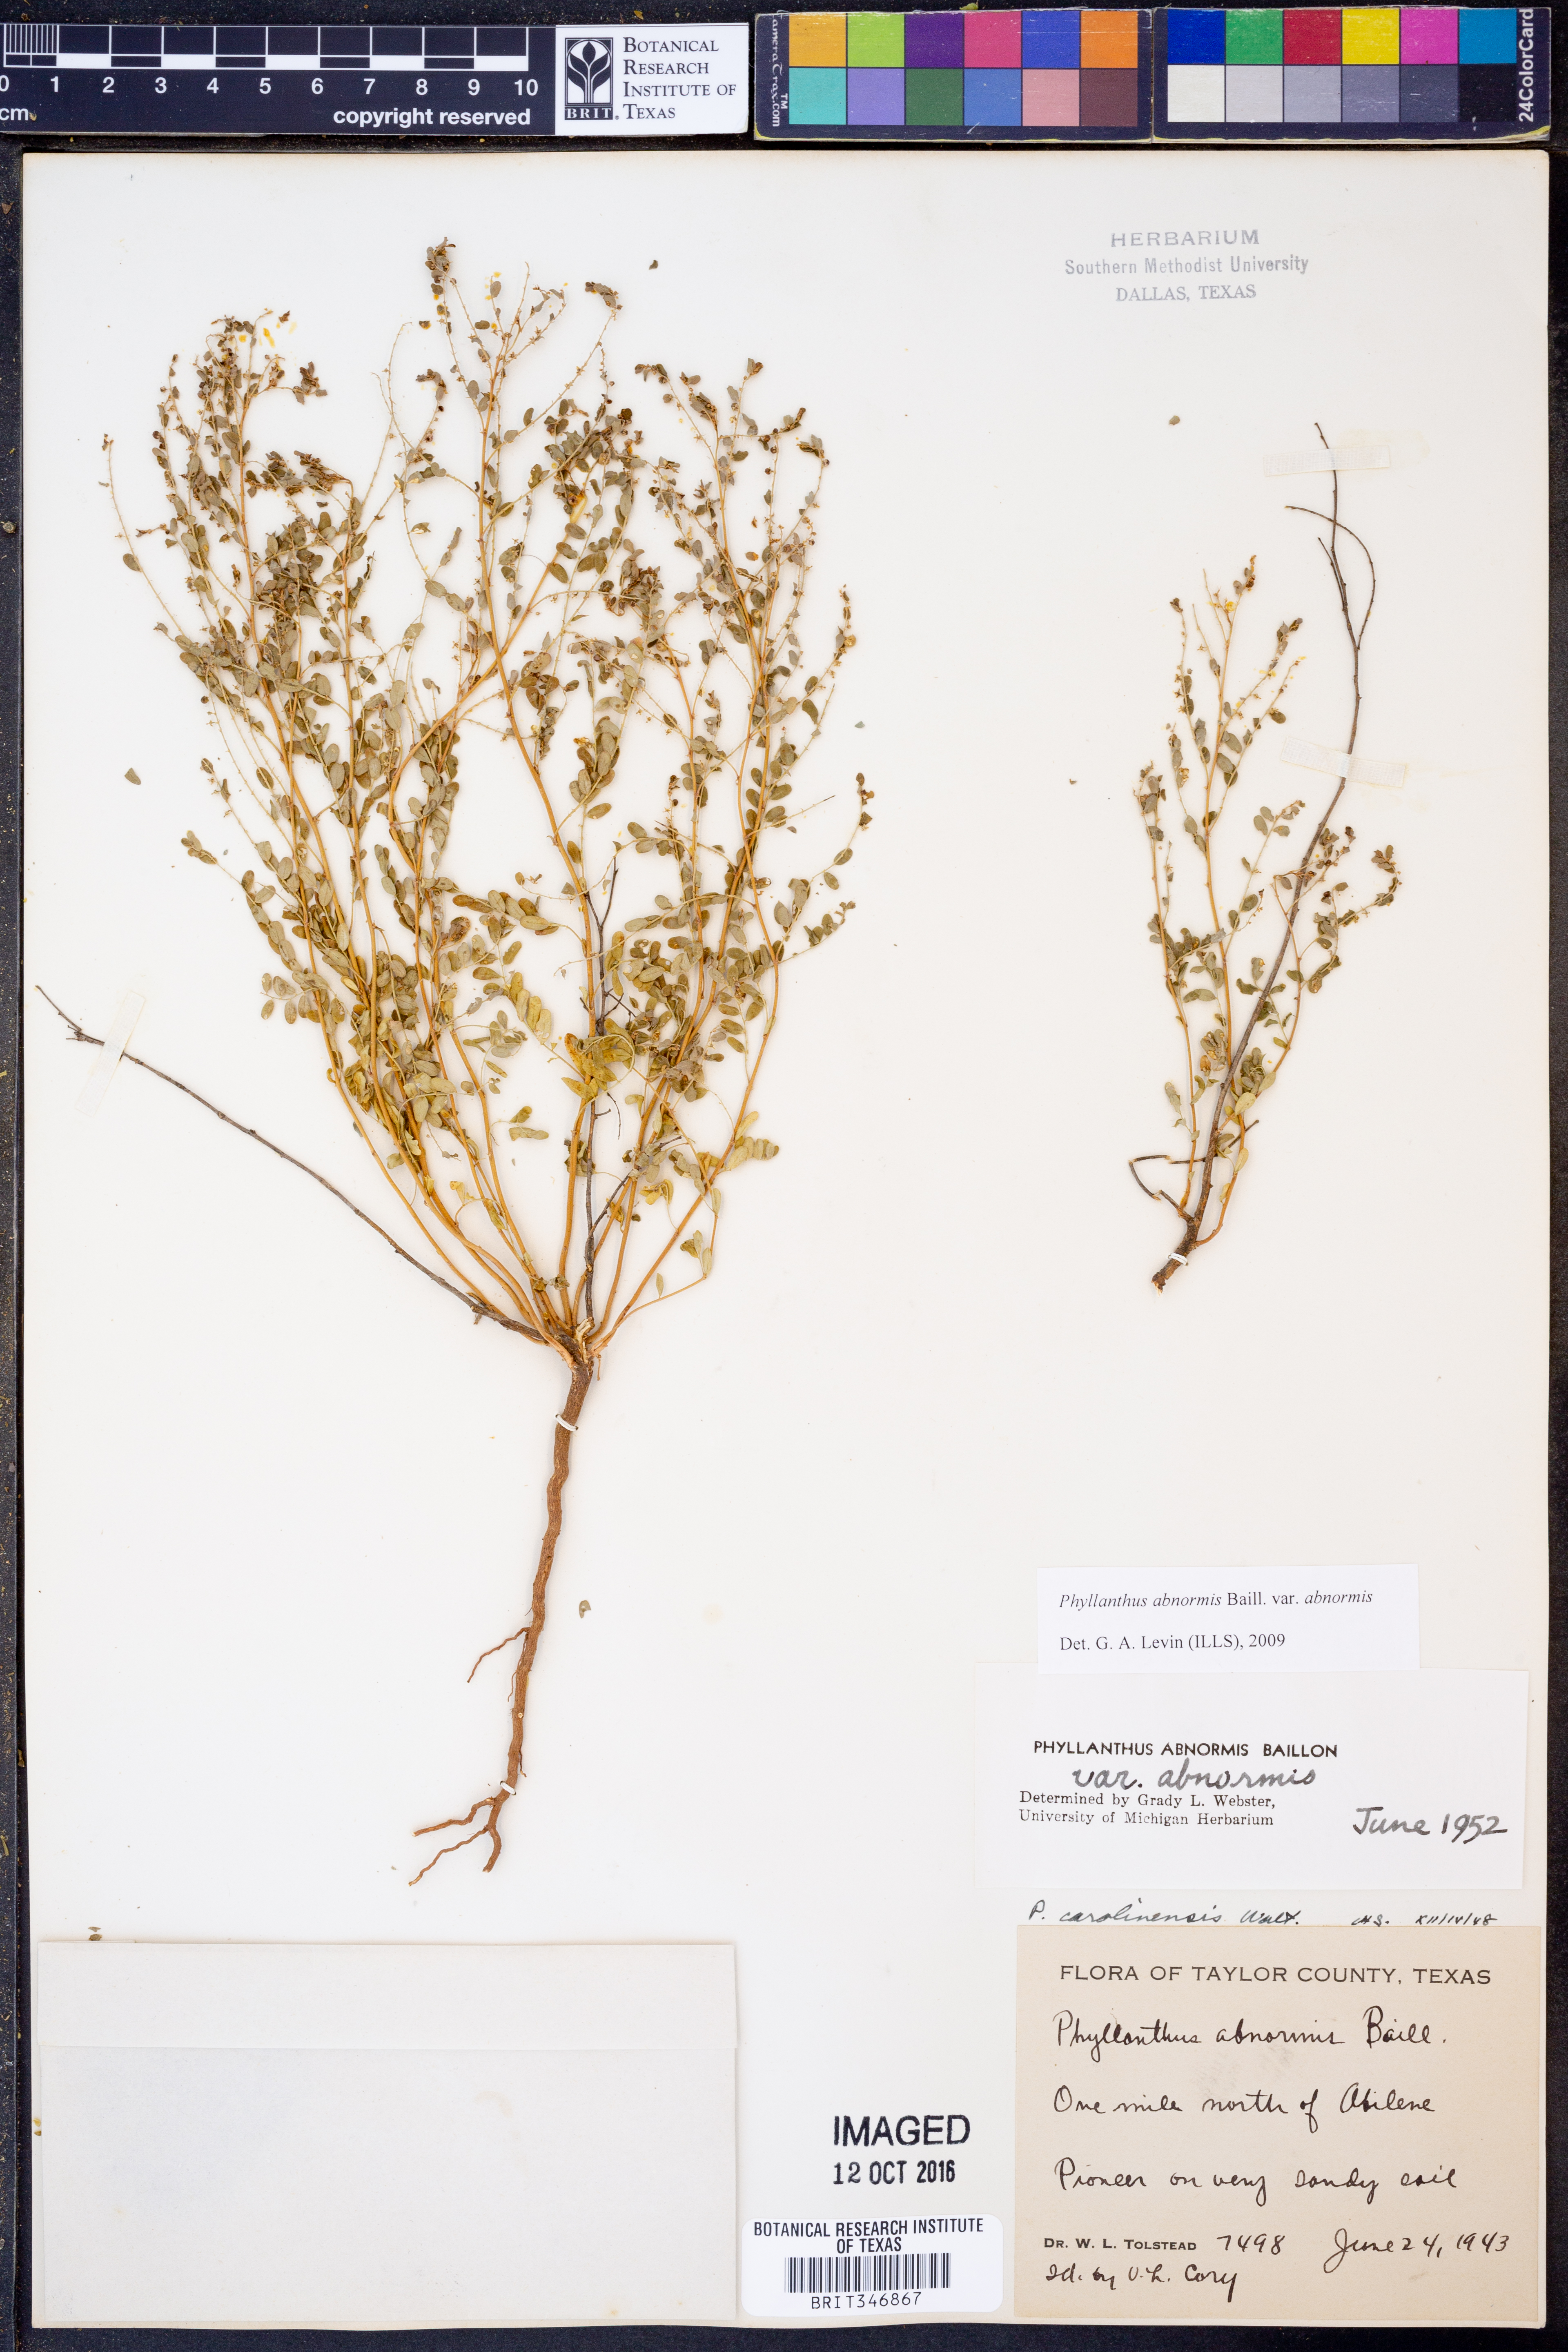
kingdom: Plantae
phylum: Tracheophyta
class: Magnoliopsida
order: Malpighiales
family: Phyllanthaceae
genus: Phyllanthus
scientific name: Phyllanthus abnormis
